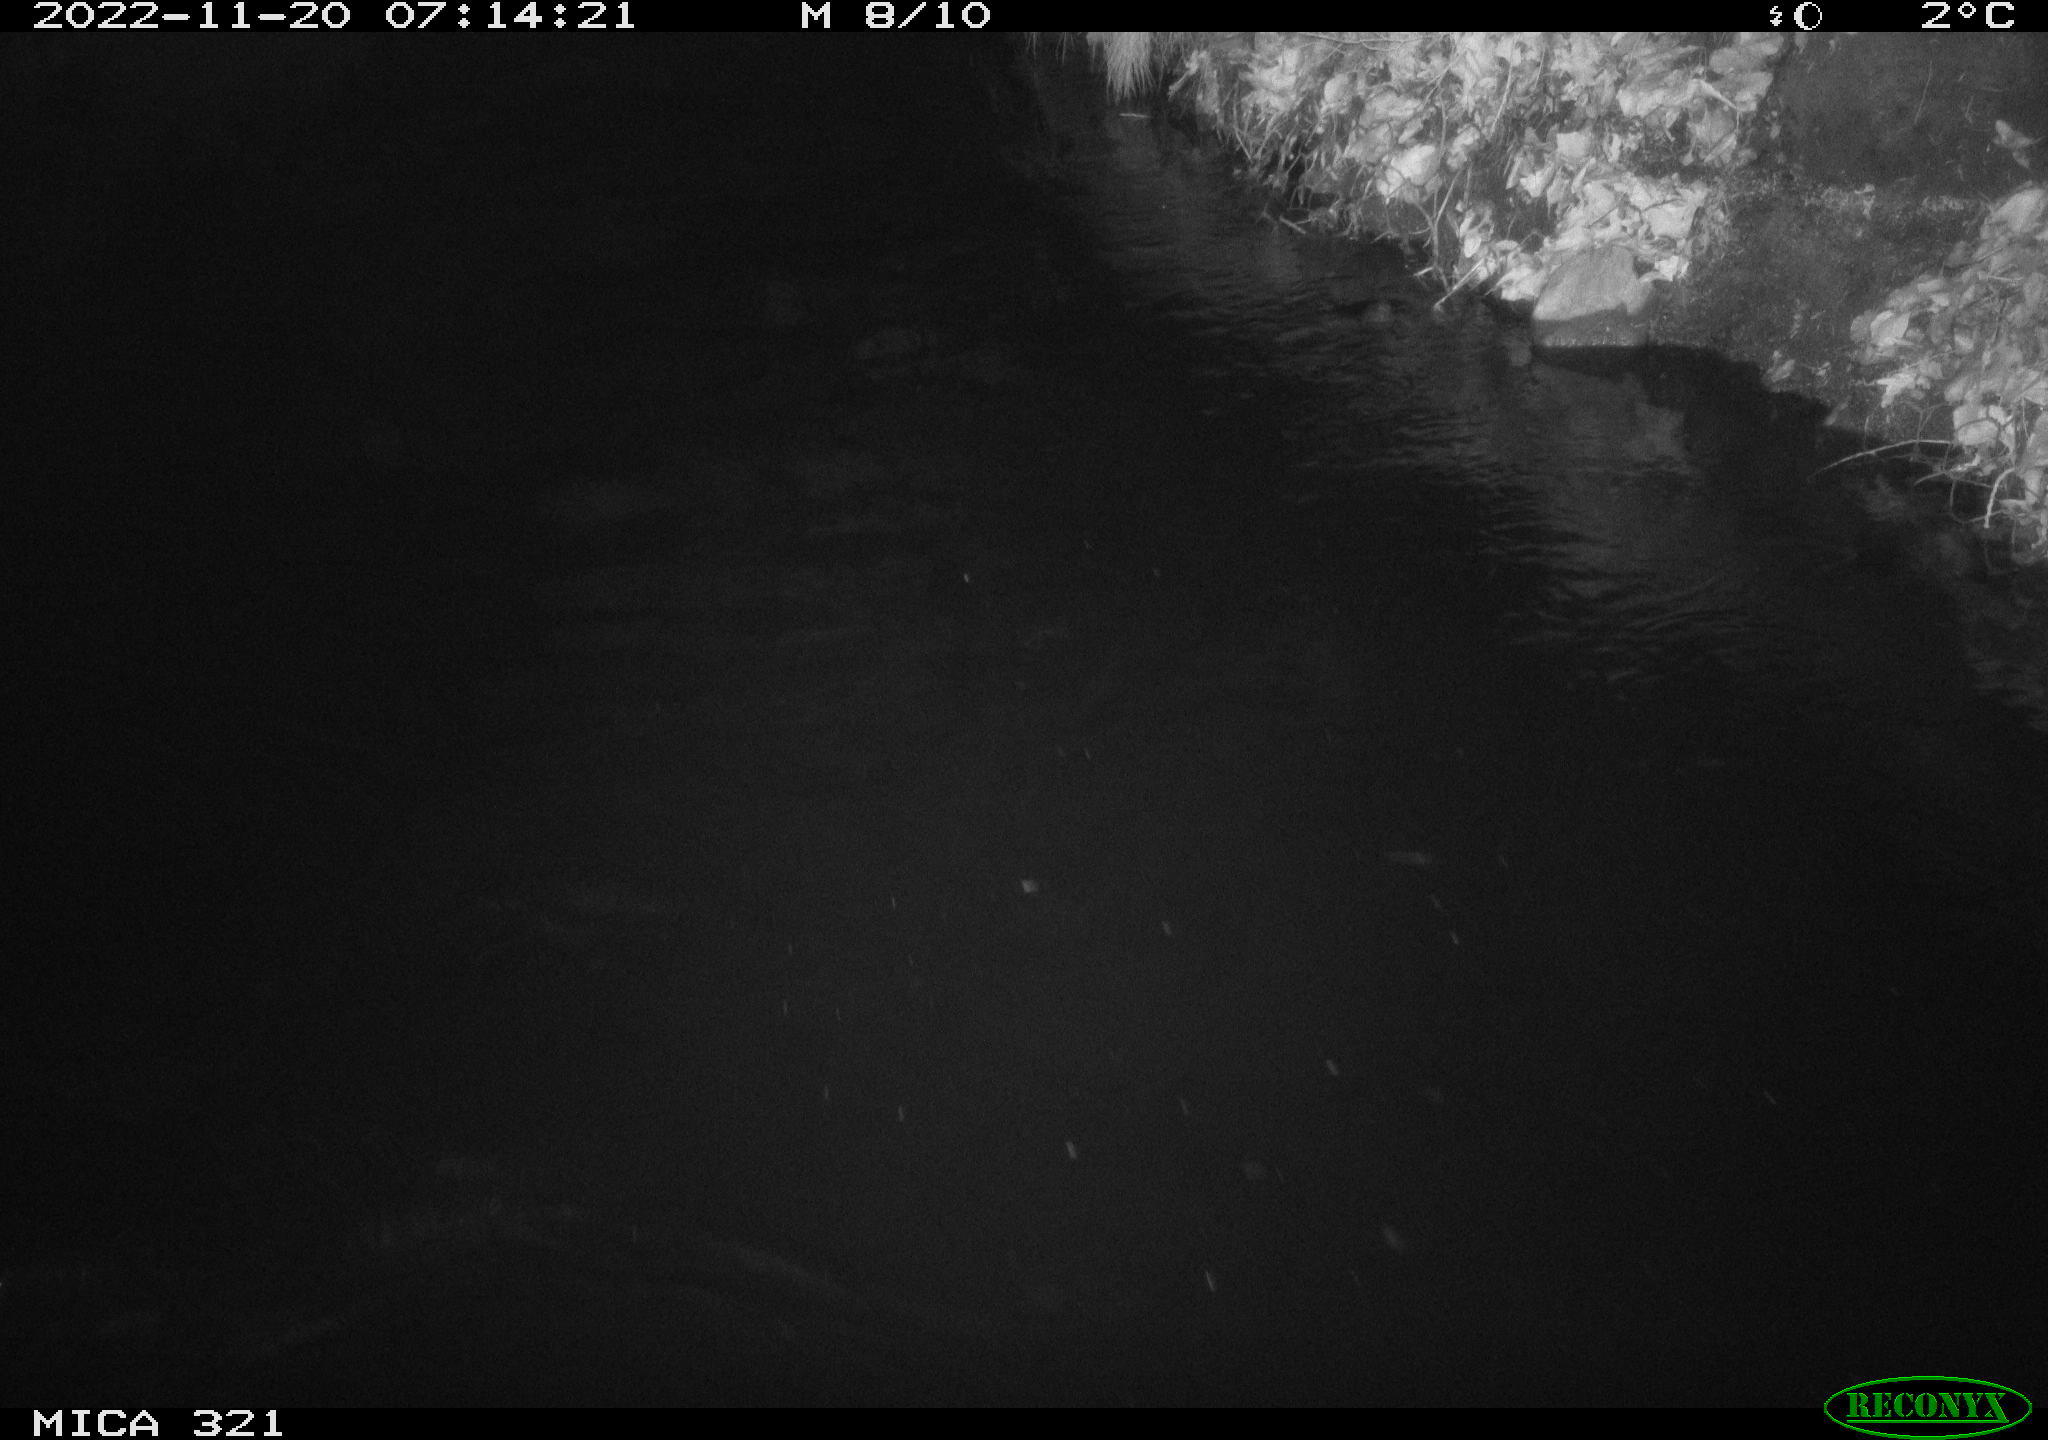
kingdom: Animalia
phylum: Chordata
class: Aves
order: Anseriformes
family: Anatidae
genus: Anas
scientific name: Anas
